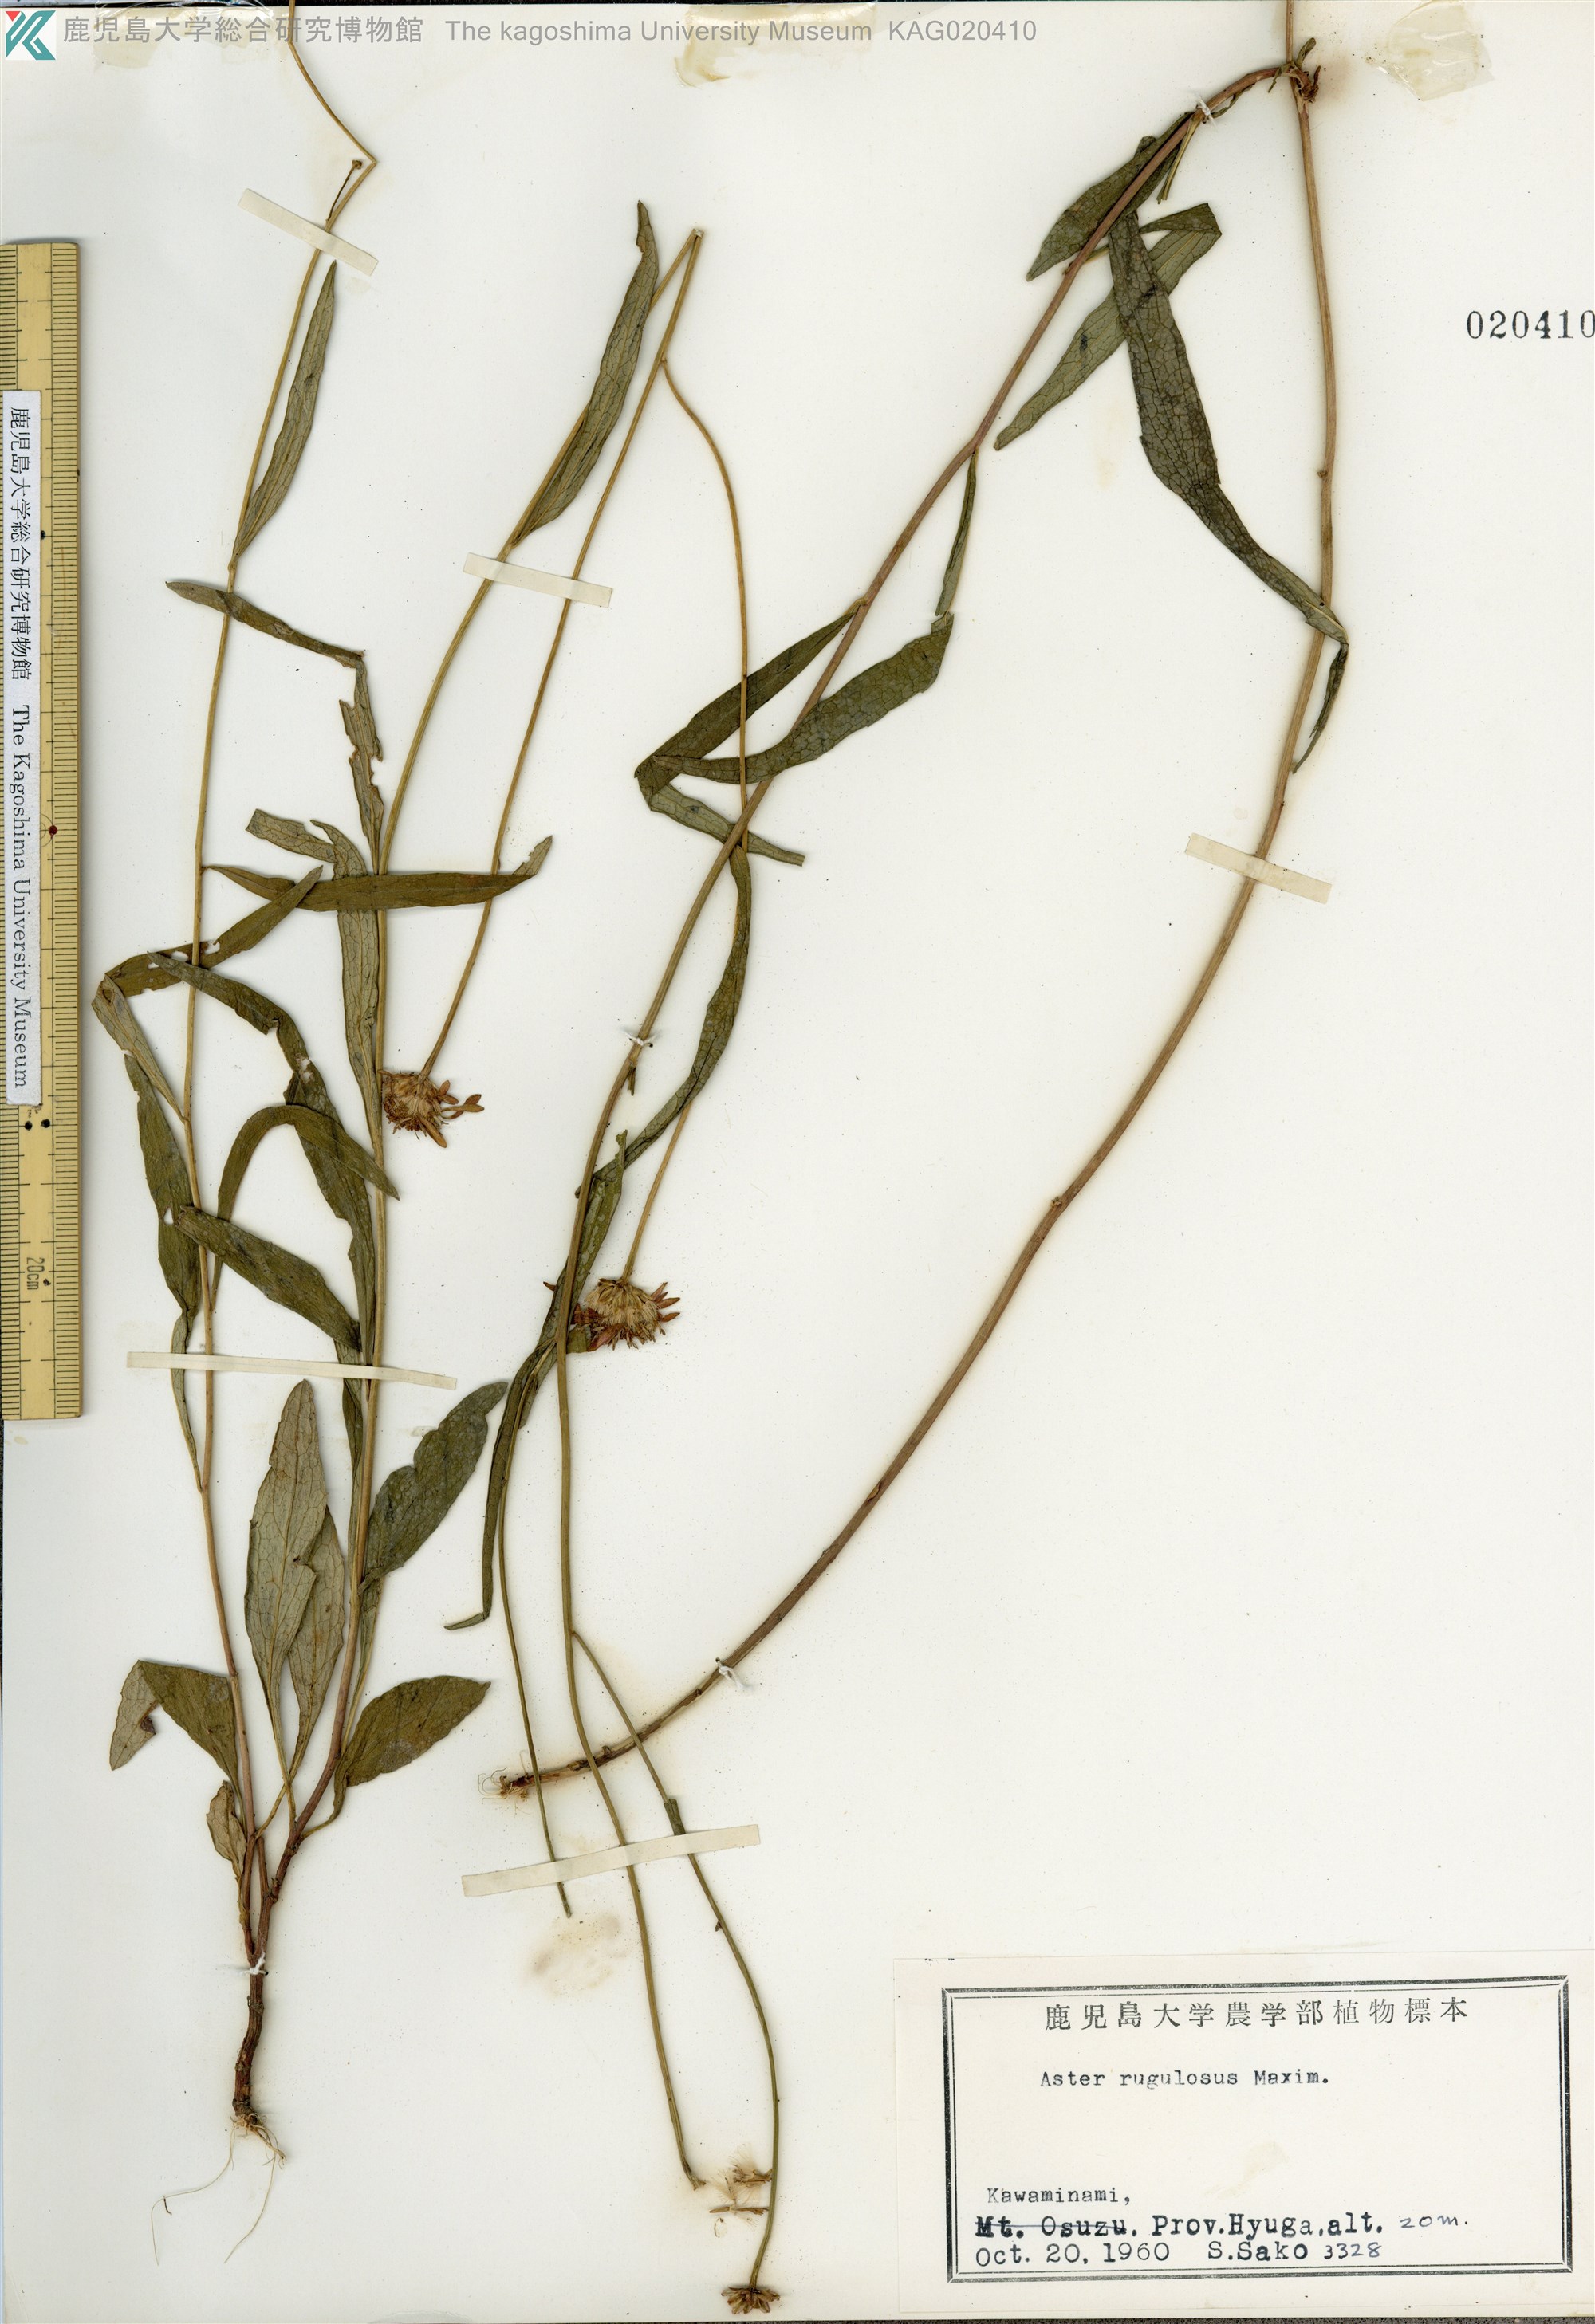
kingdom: Plantae
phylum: Tracheophyta
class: Magnoliopsida
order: Asterales
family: Asteraceae
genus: Cardiagyris
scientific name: Cardiagyris rugulosa
